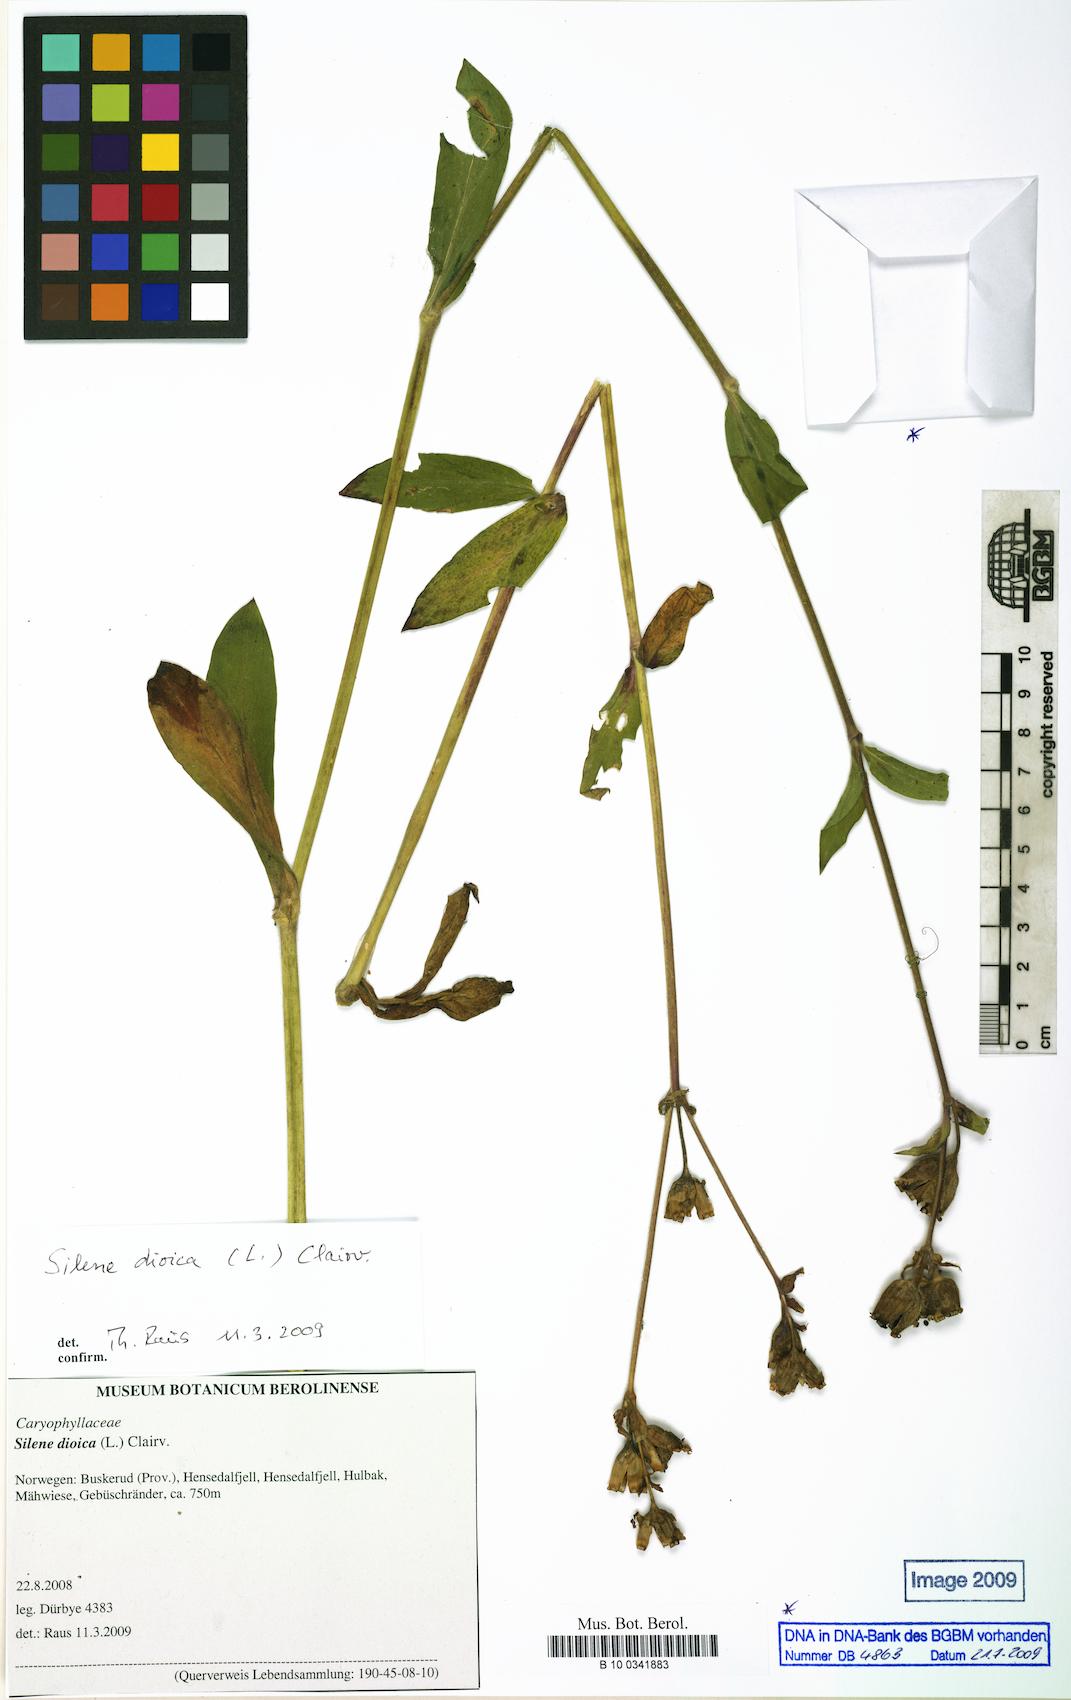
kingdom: Plantae
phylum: Tracheophyta
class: Magnoliopsida
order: Caryophyllales
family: Caryophyllaceae
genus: Silene
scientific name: Silene dioica
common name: Red campion
